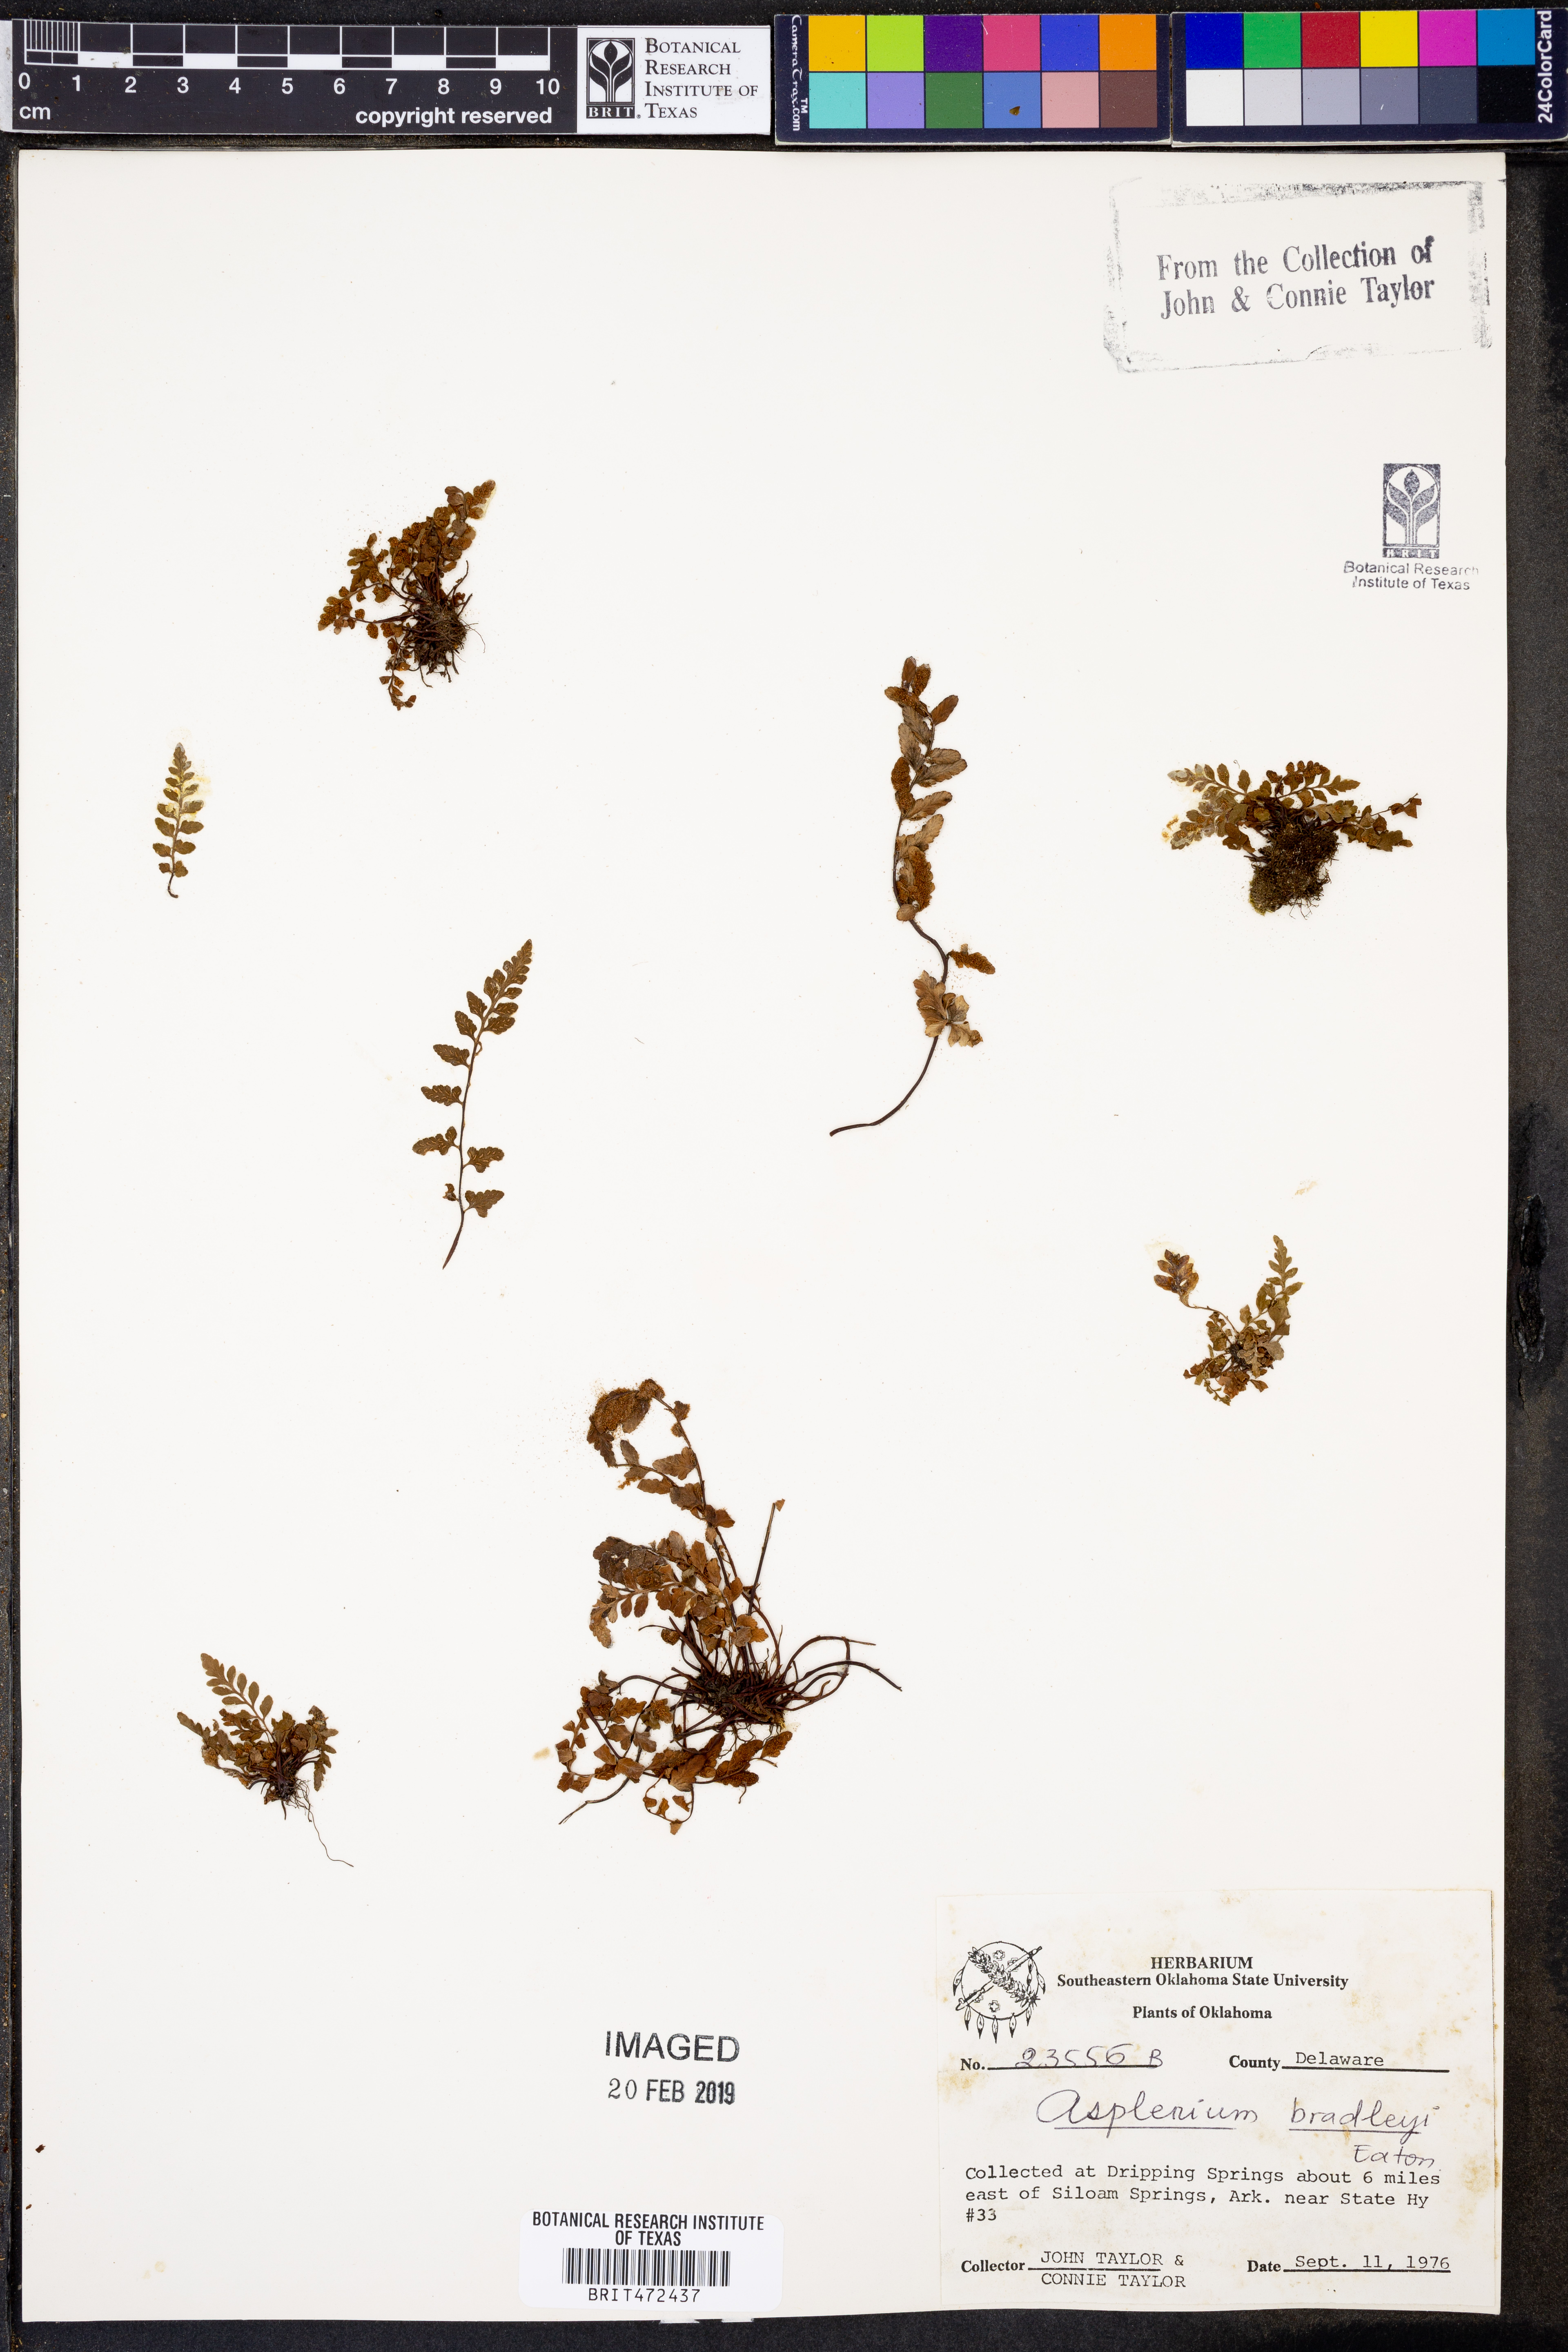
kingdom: Plantae
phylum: Tracheophyta
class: Polypodiopsida
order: Polypodiales
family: Aspleniaceae
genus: Asplenium
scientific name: Asplenium bradleyi
